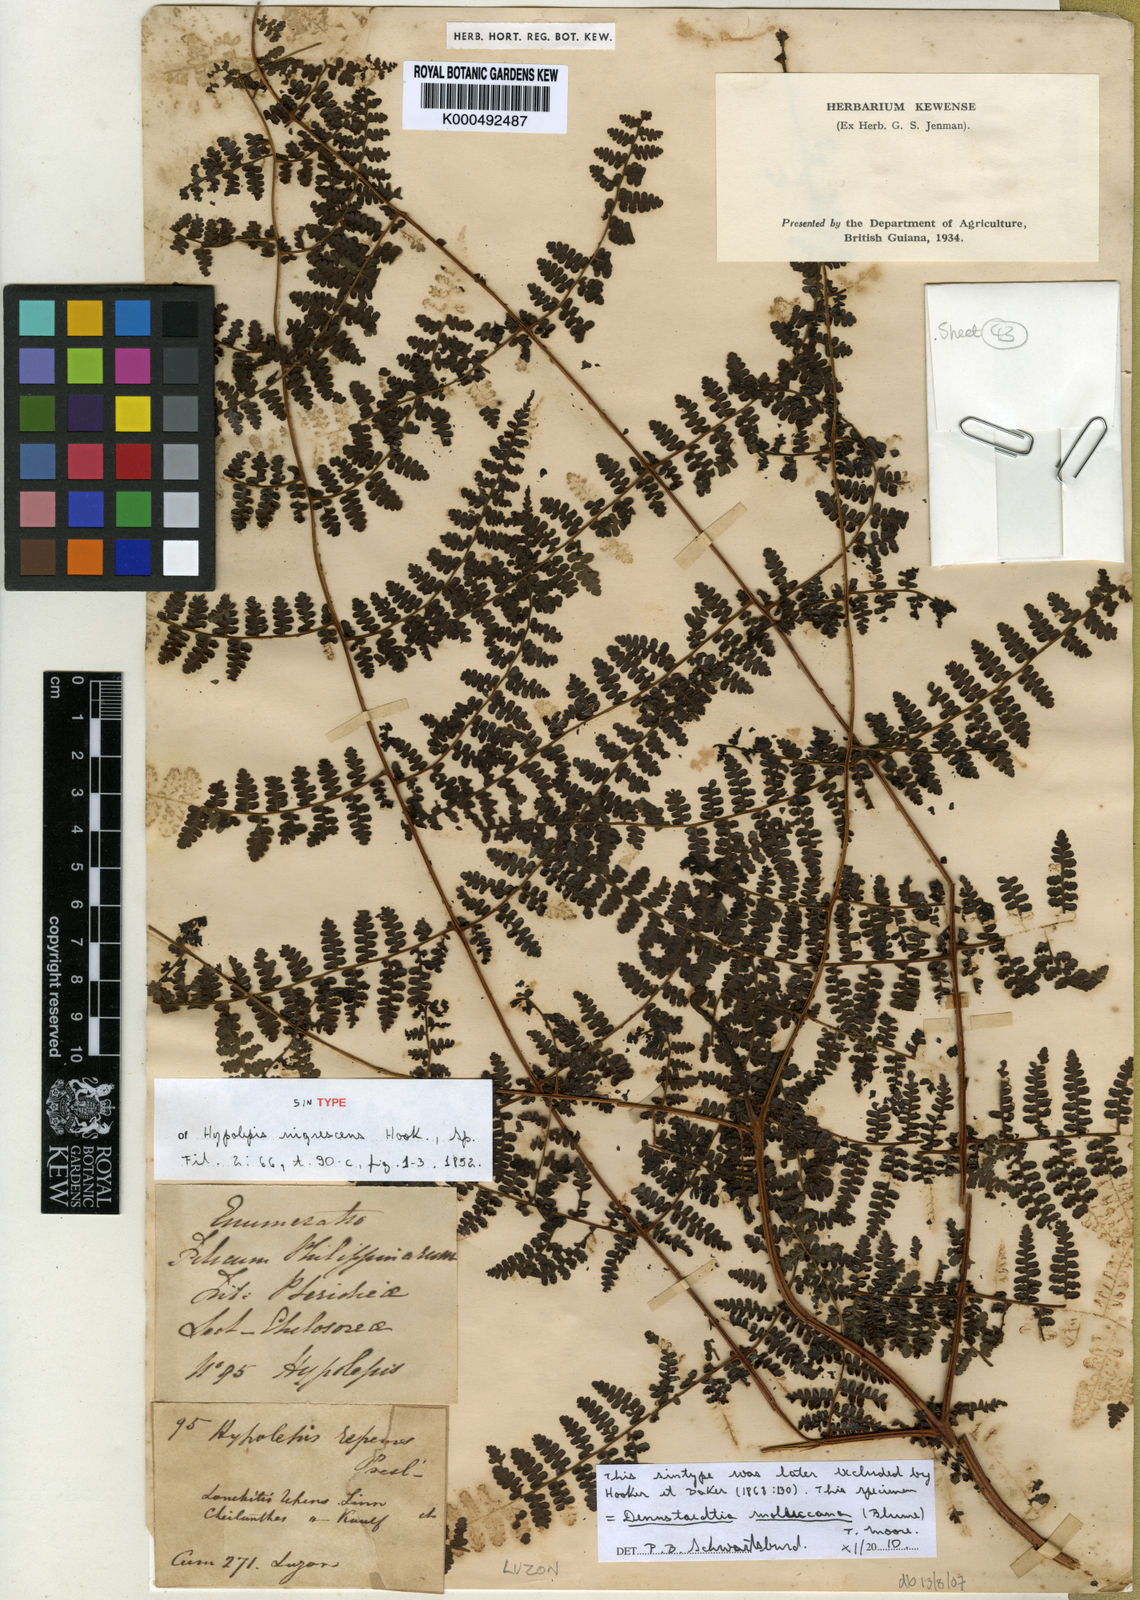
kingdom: Plantae
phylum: Tracheophyta
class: Polypodiopsida
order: Polypodiales
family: Lindsaeaceae
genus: Tapeinidium
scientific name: Tapeinidium moluccanum
